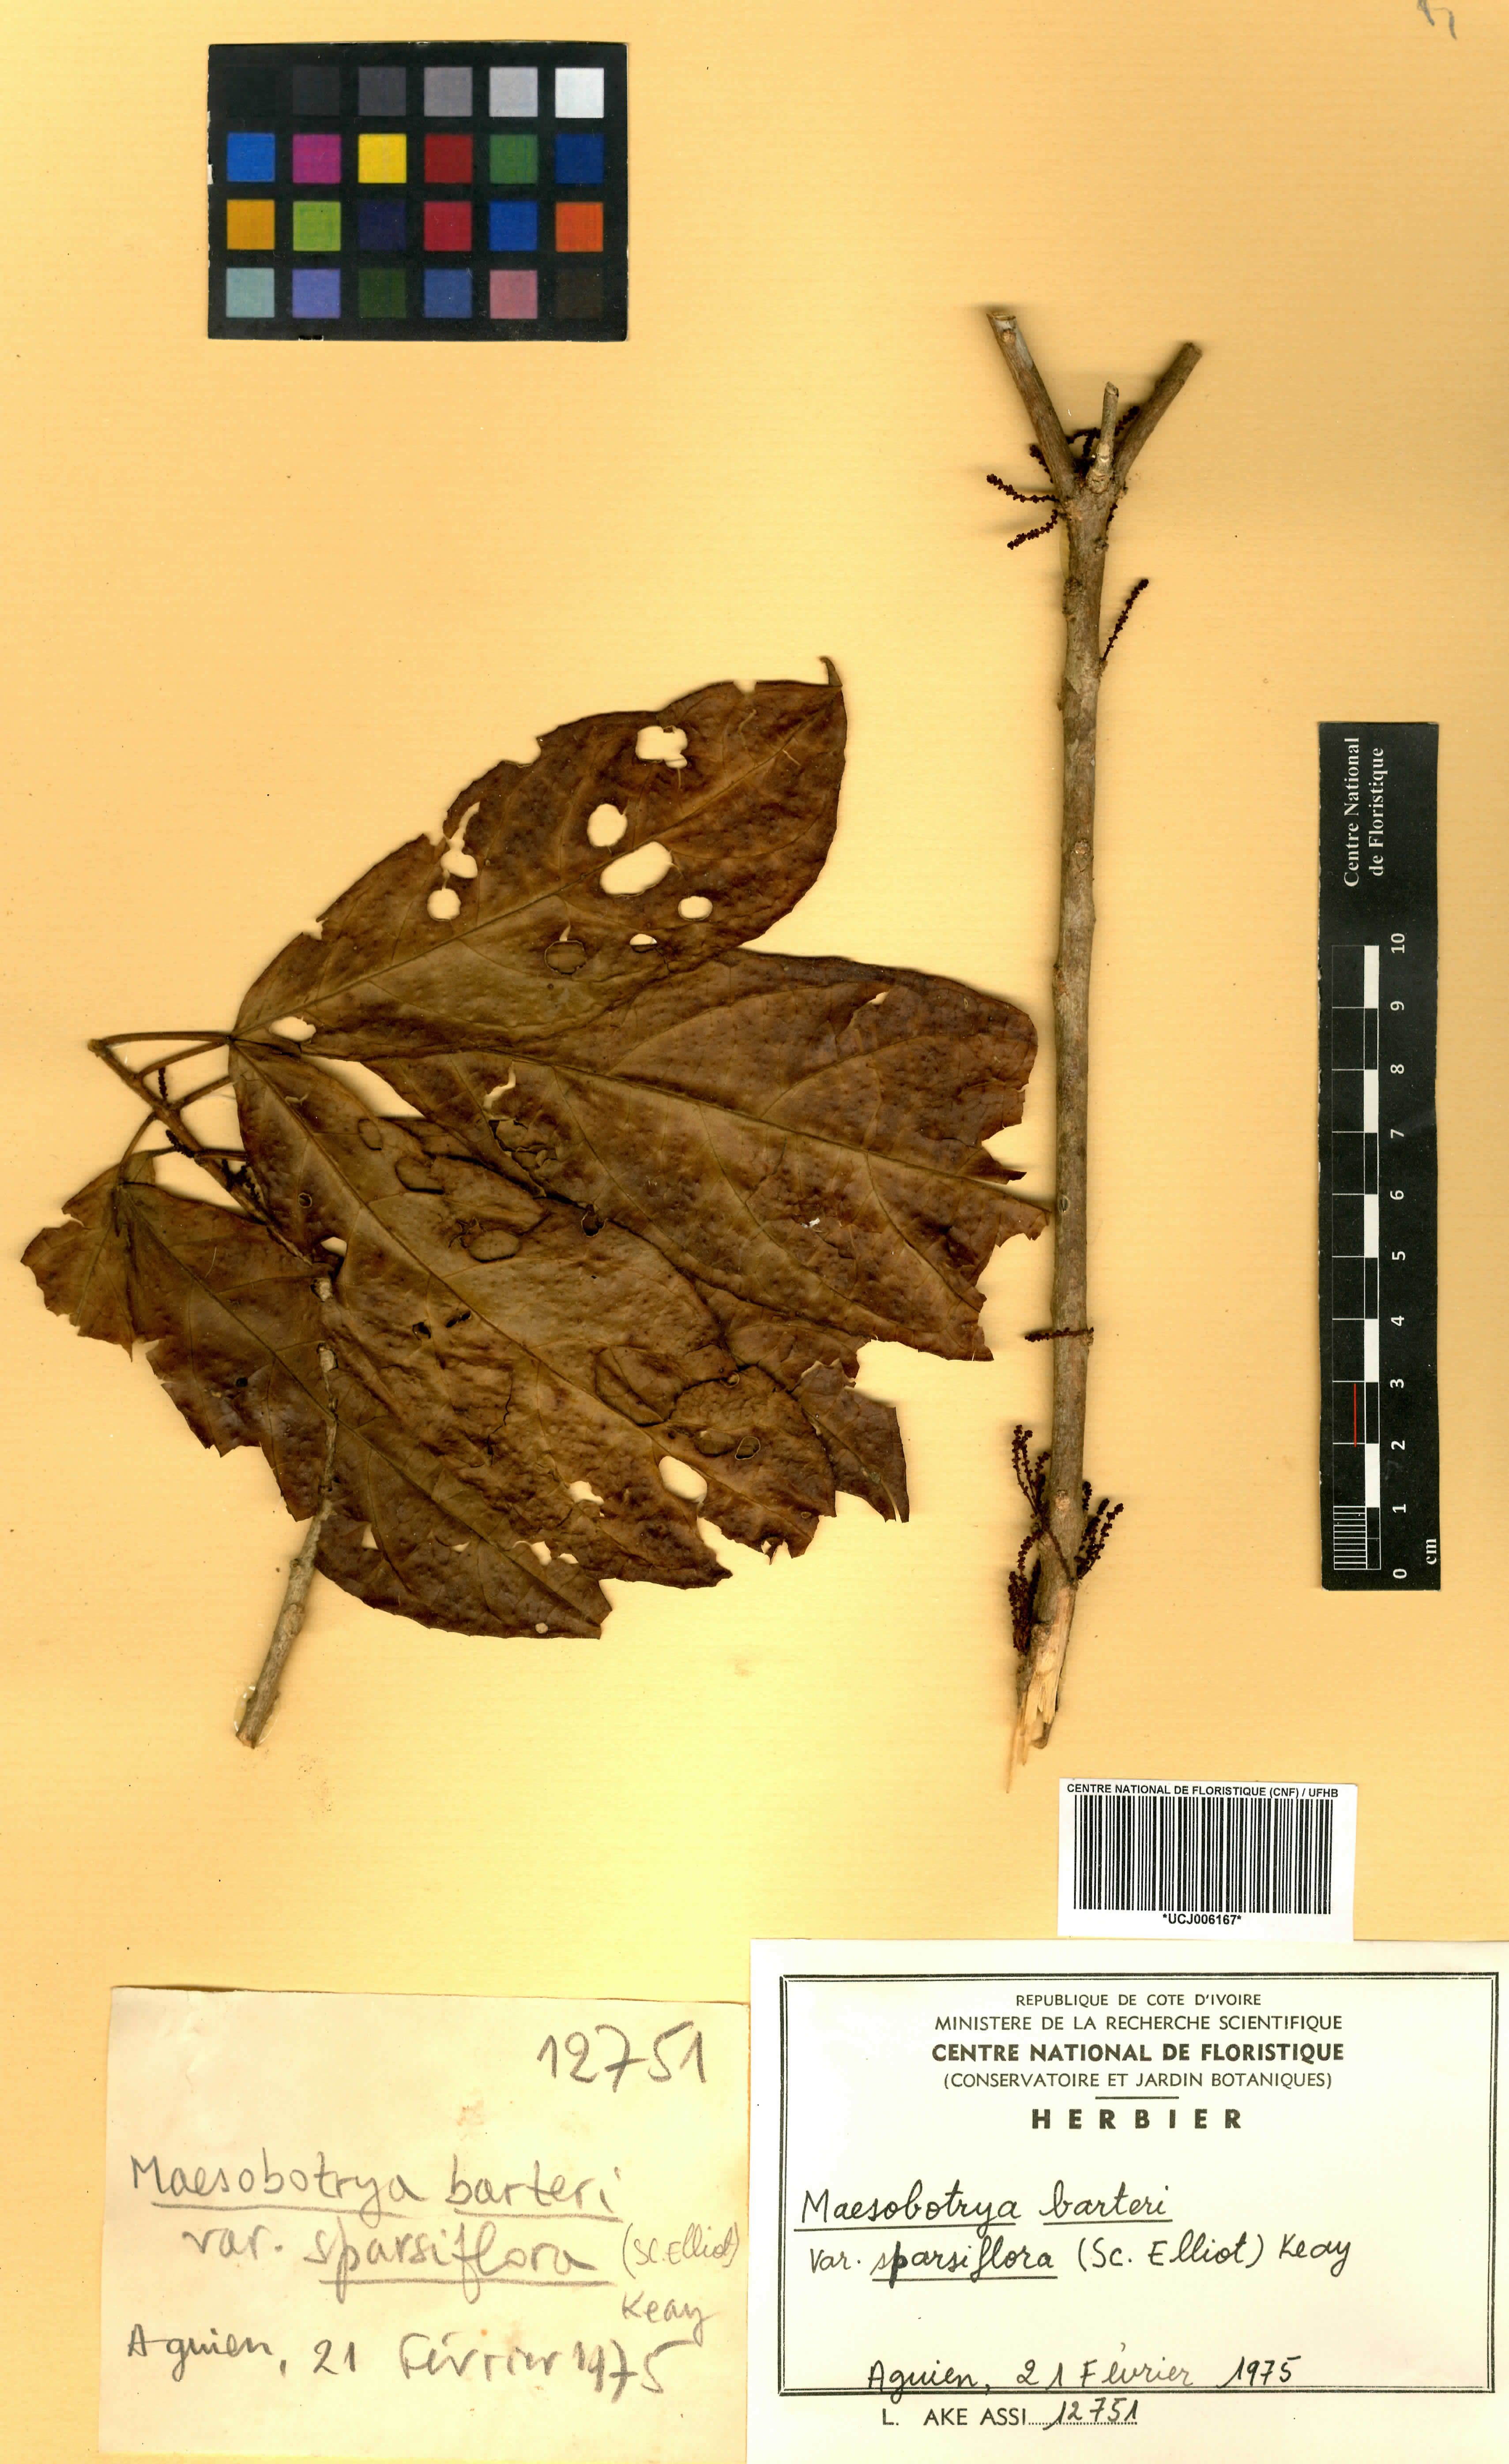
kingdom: Plantae
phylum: Tracheophyta
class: Magnoliopsida
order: Malpighiales
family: Phyllanthaceae
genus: Maesobotrya
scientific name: Maesobotrya barteri
